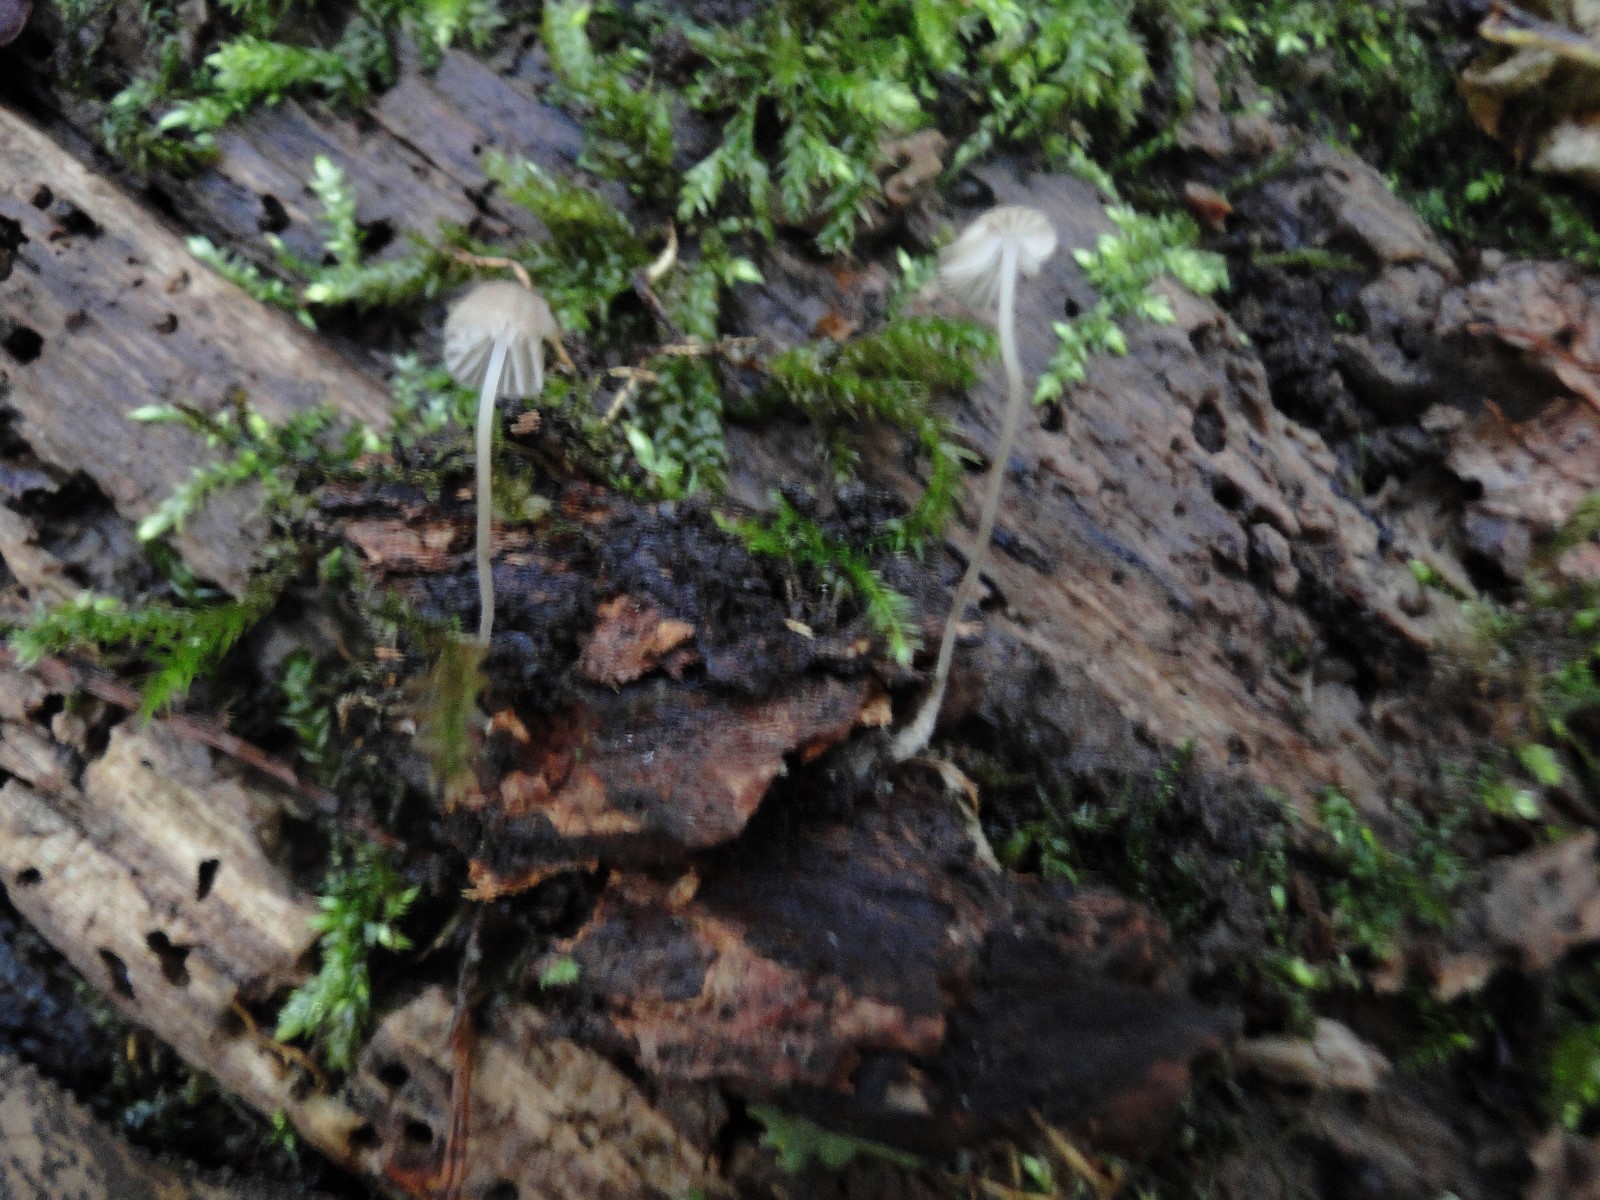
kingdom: Fungi
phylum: Basidiomycota
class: Agaricomycetes
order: Agaricales
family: Porotheleaceae
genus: Phloeomana
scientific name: Phloeomana hiemalis
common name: sen huesvamp
